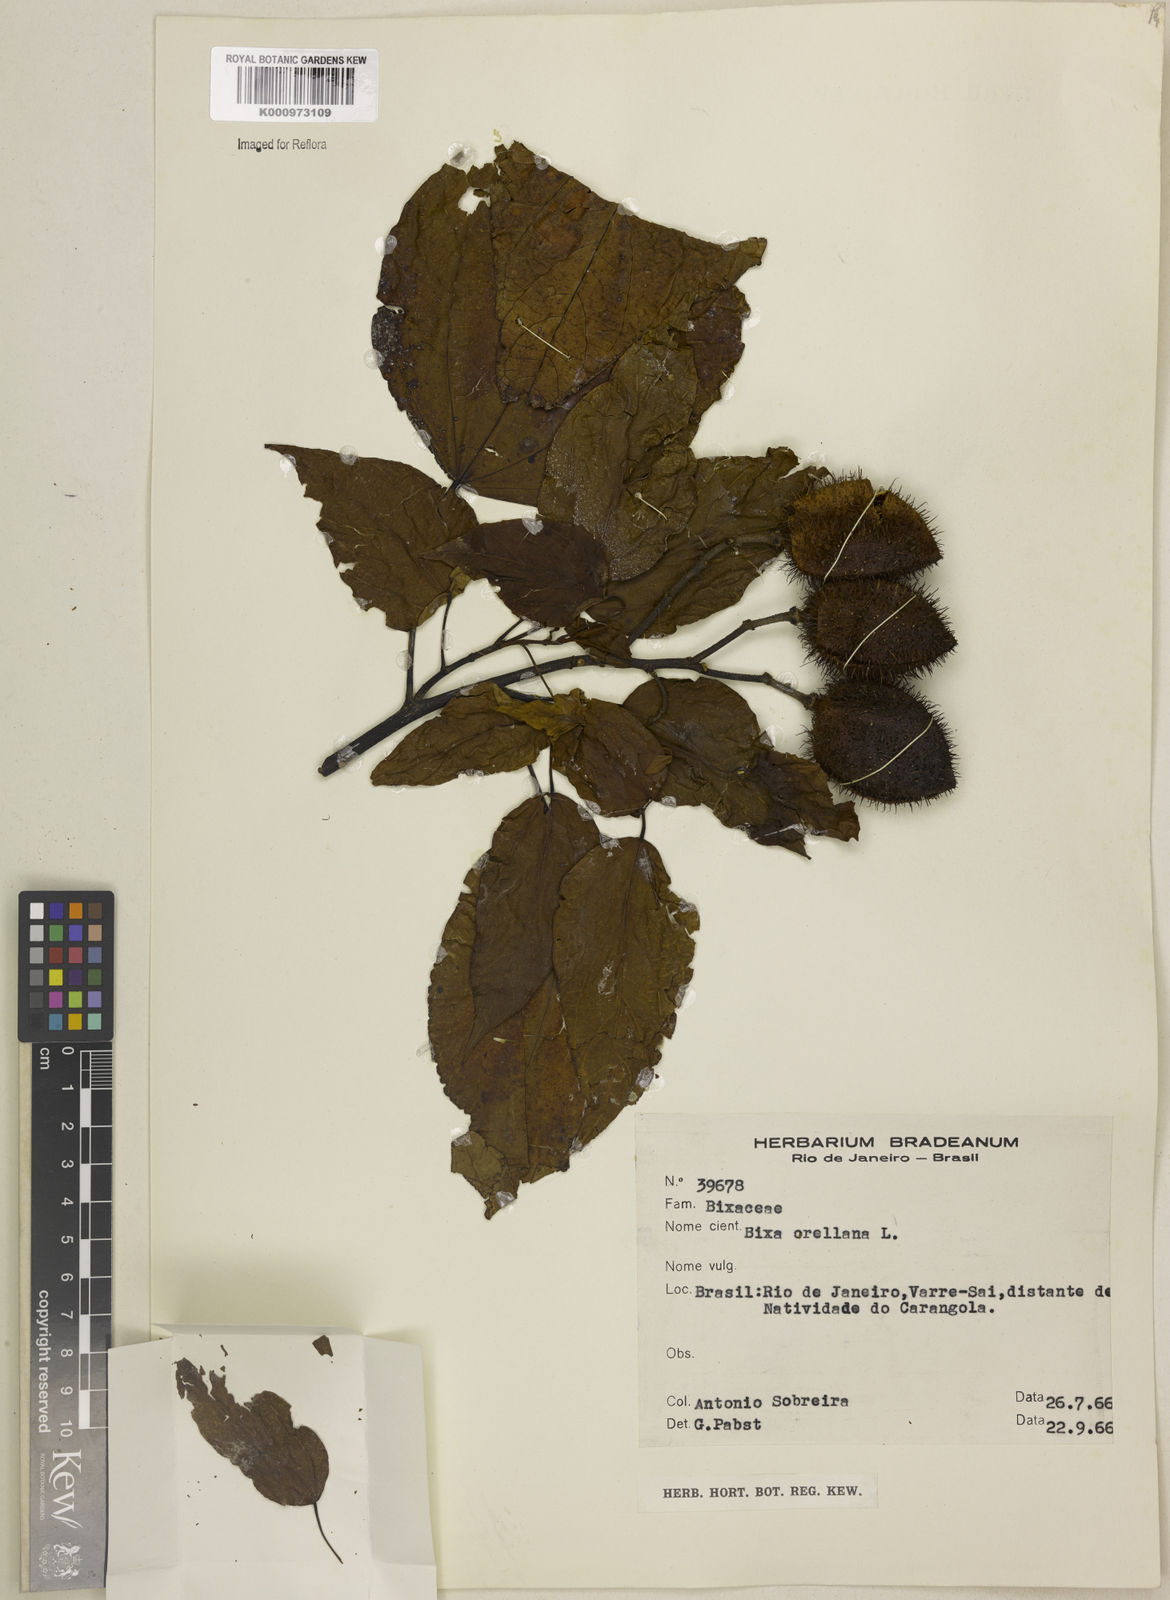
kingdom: Plantae
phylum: Tracheophyta
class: Magnoliopsida
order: Malvales
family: Bixaceae
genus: Bixa
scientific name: Bixa urucurana
